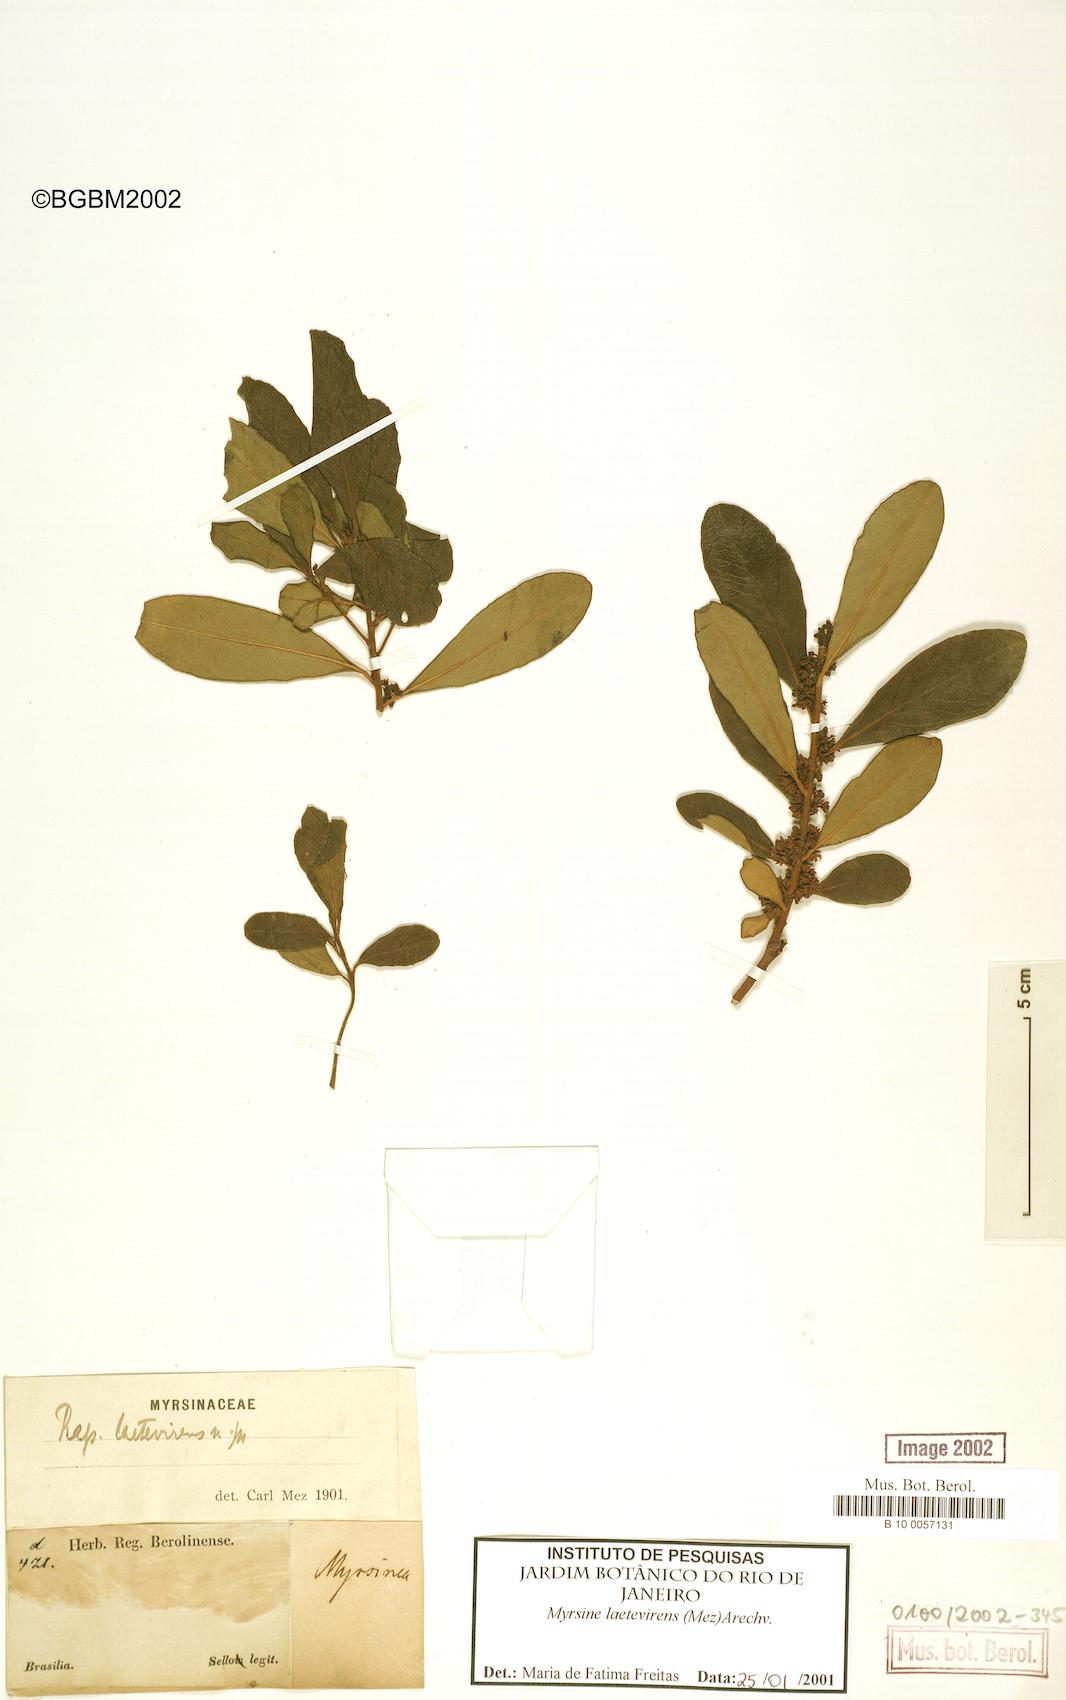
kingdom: Plantae
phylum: Tracheophyta
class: Magnoliopsida
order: Ericales
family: Primulaceae
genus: Myrsine
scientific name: Myrsine laetevirens
